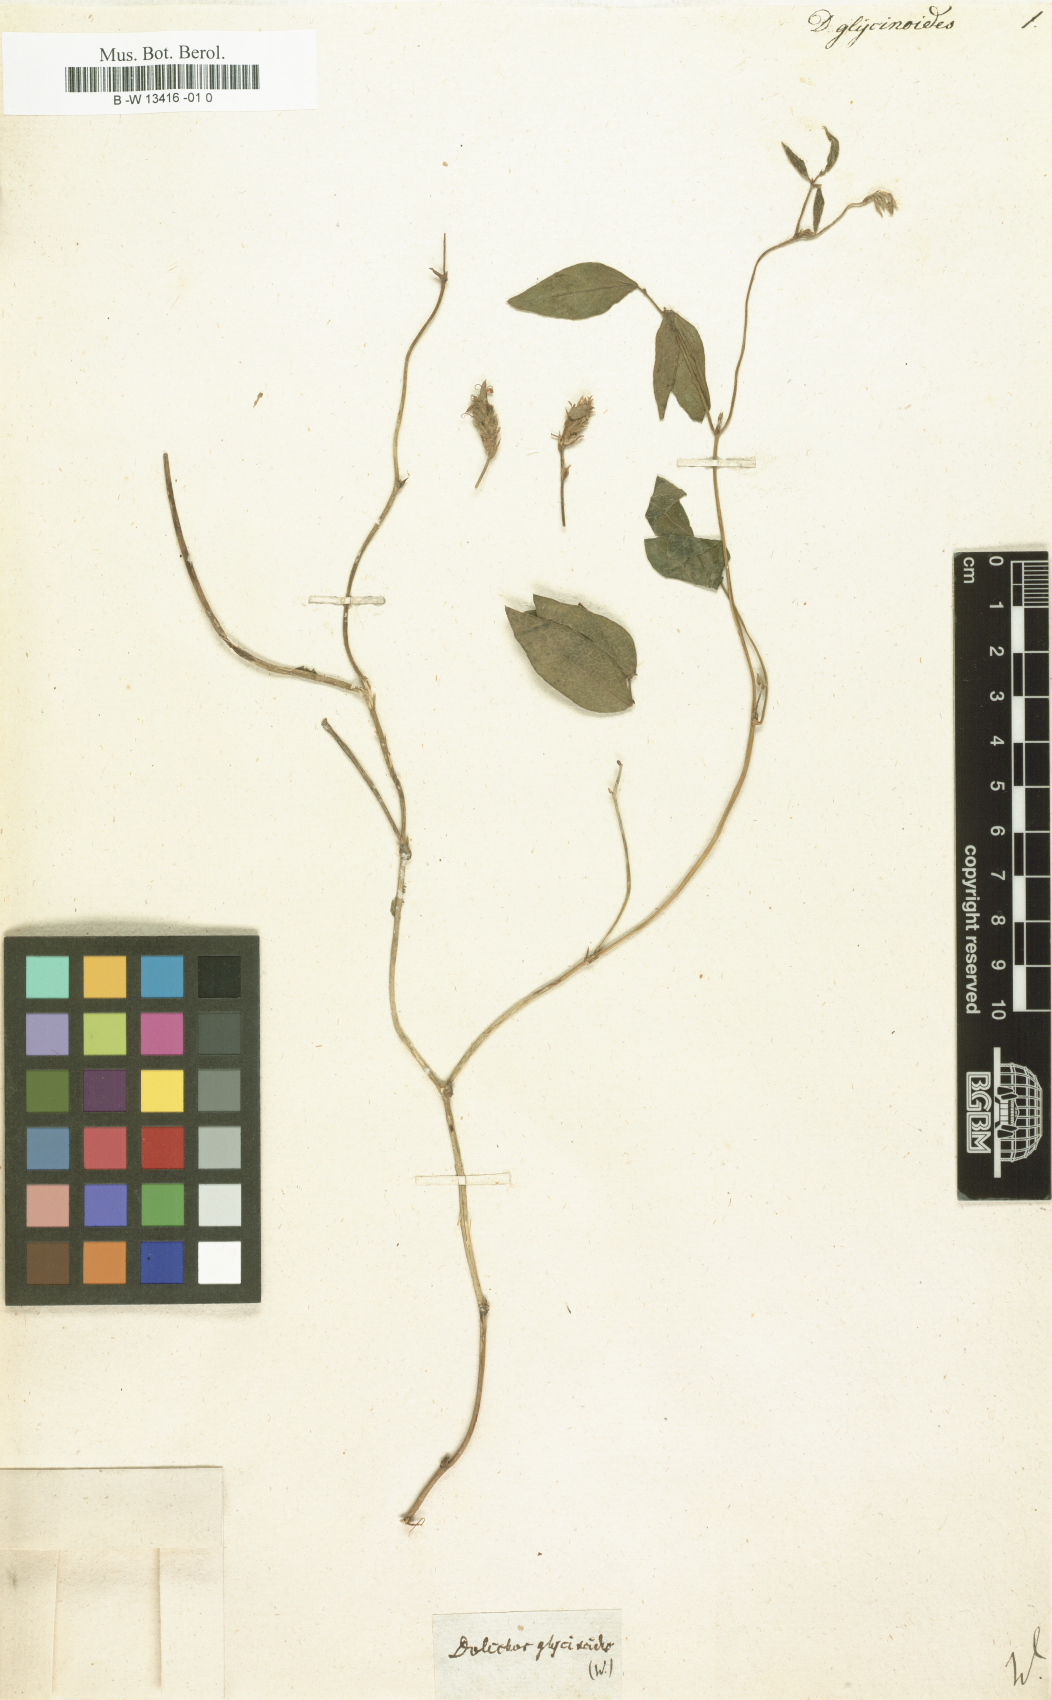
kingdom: Plantae
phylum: Tracheophyta
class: Magnoliopsida
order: Fabales
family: Fabaceae
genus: Vigna
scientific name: Vigna luteola
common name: Hairypod cowpea
